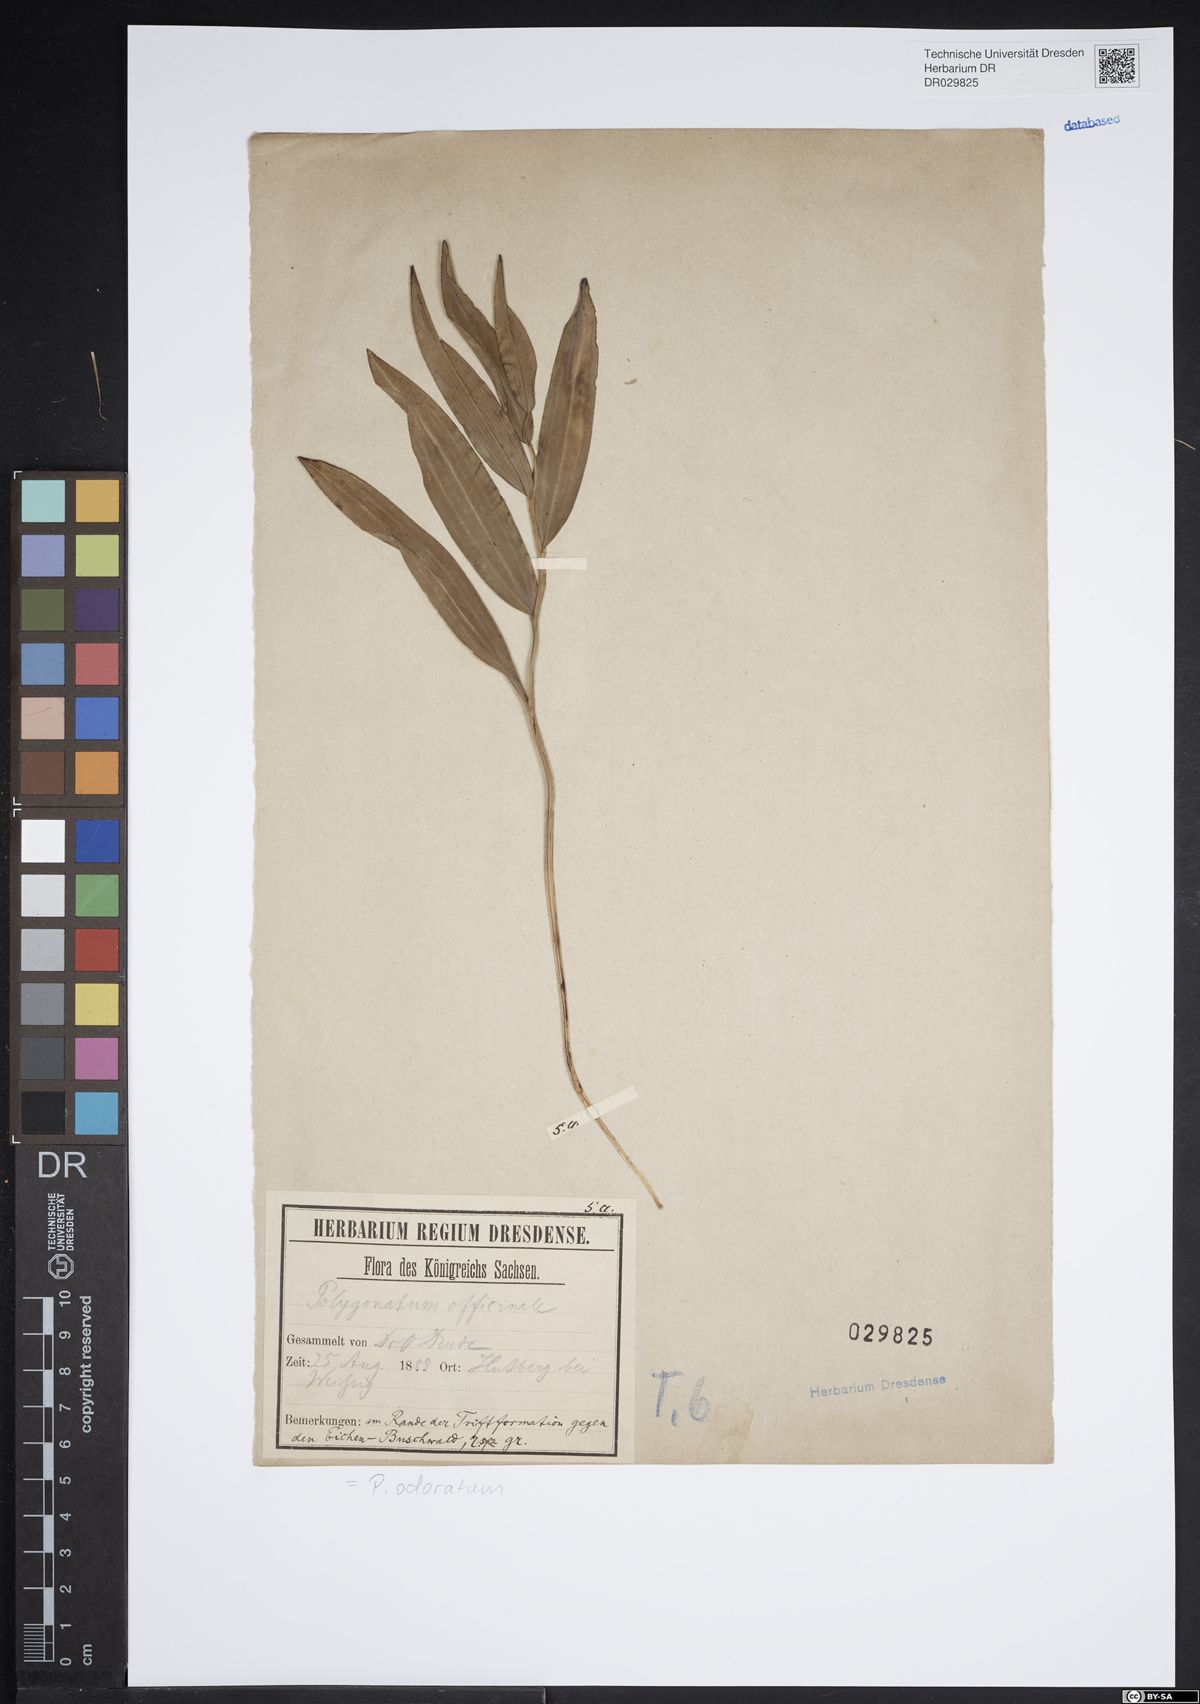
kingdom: Plantae
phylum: Tracheophyta
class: Liliopsida
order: Asparagales
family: Asparagaceae
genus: Polygonatum
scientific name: Polygonatum odoratum
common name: Angular solomon's-seal
